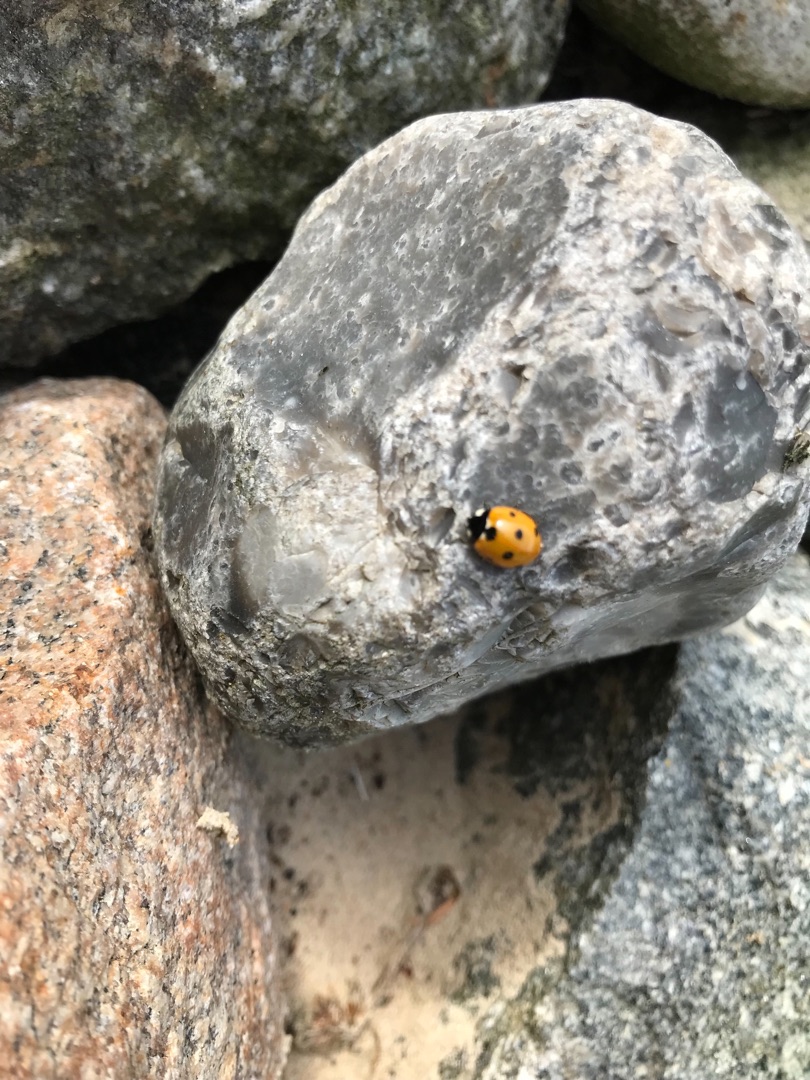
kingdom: Animalia
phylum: Arthropoda
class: Insecta
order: Coleoptera
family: Coccinellidae
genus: Coccinella
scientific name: Coccinella septempunctata
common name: Syvplettet mariehøne
